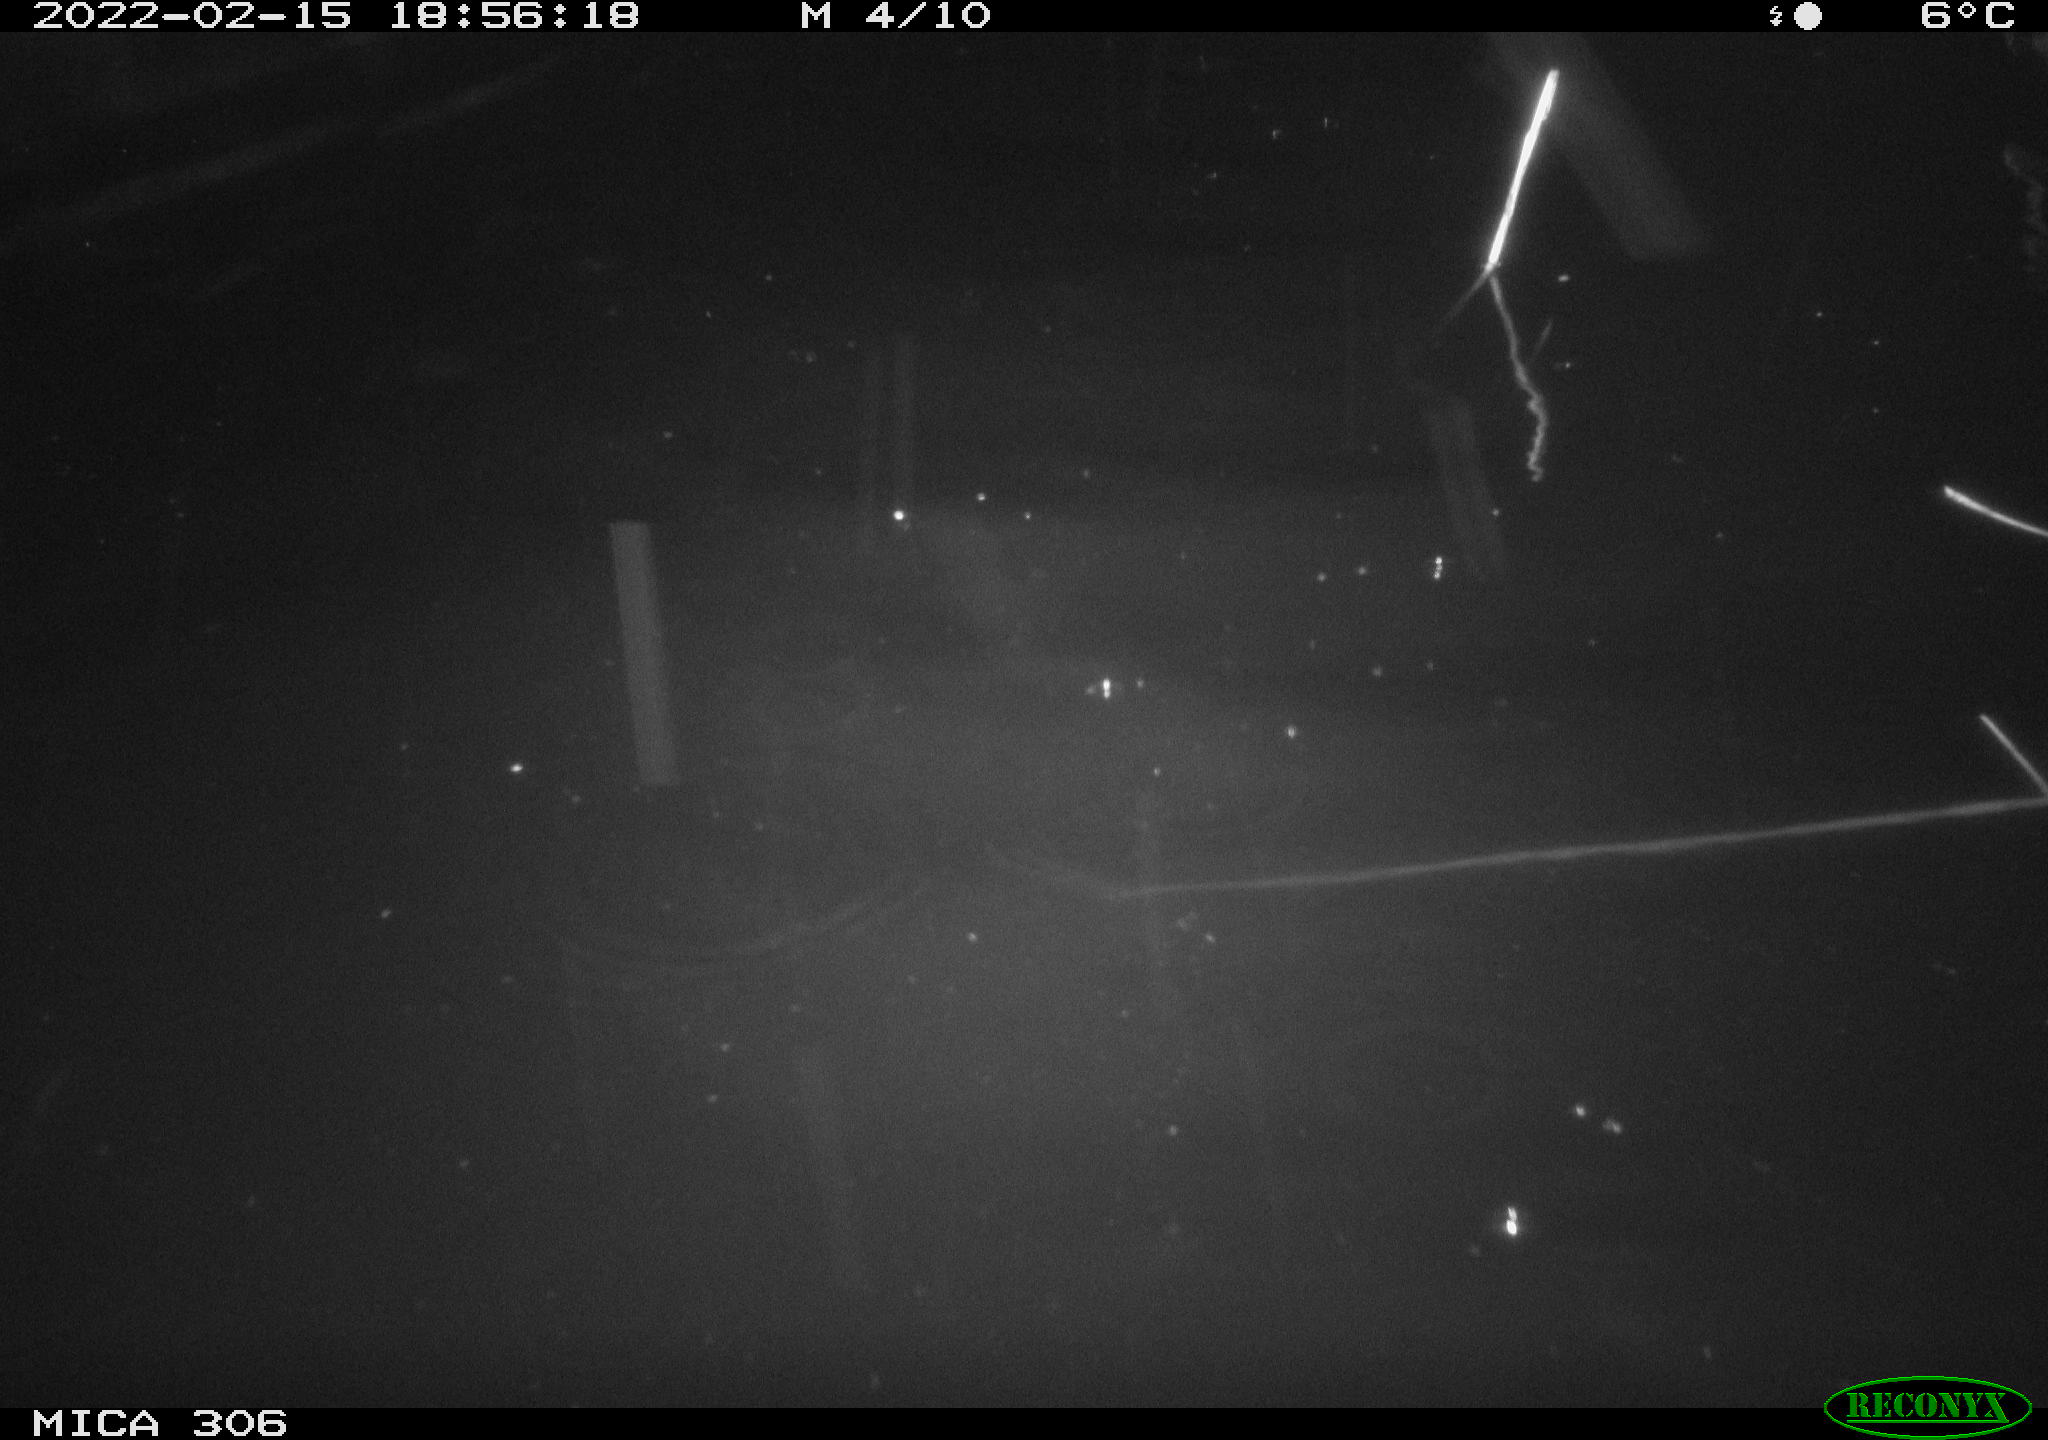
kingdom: Animalia
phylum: Chordata
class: Mammalia
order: Rodentia
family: Cricetidae
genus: Ondatra
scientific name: Ondatra zibethicus
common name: Muskrat
